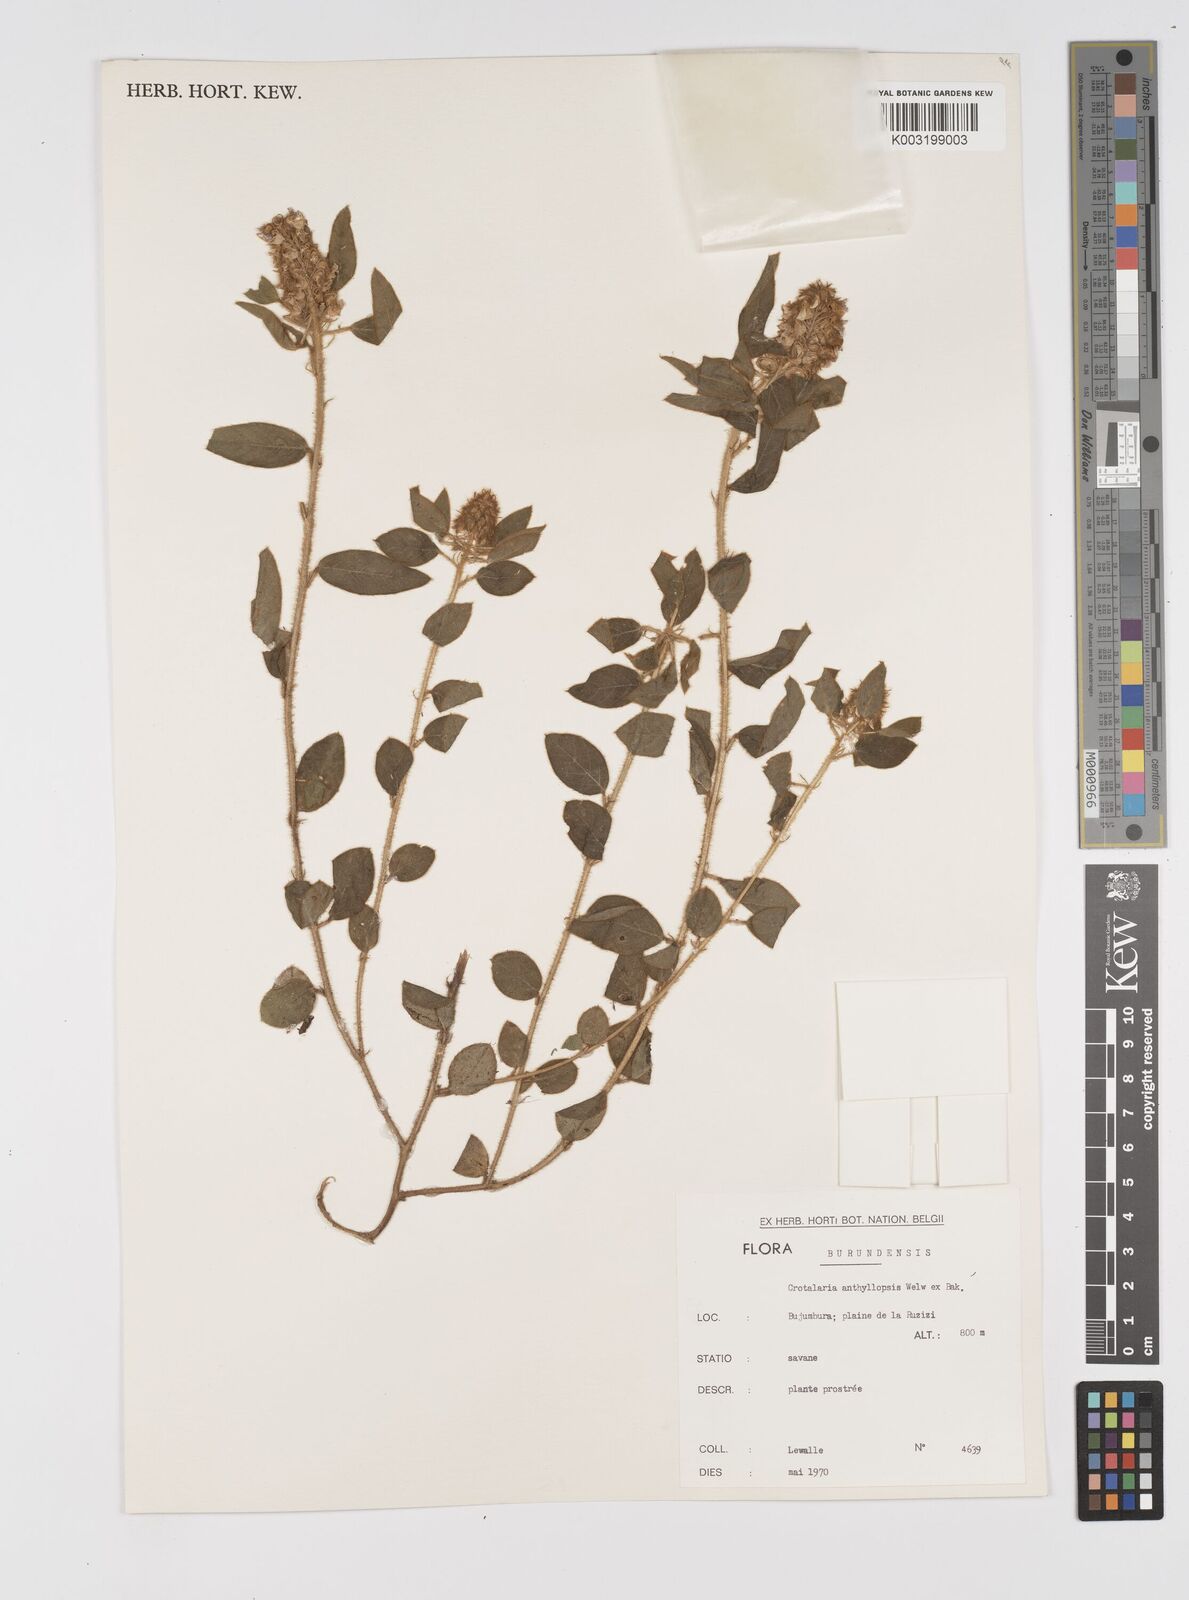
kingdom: Plantae
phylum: Tracheophyta
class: Magnoliopsida
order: Fabales
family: Fabaceae
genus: Crotalaria
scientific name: Crotalaria anthyllopsis
